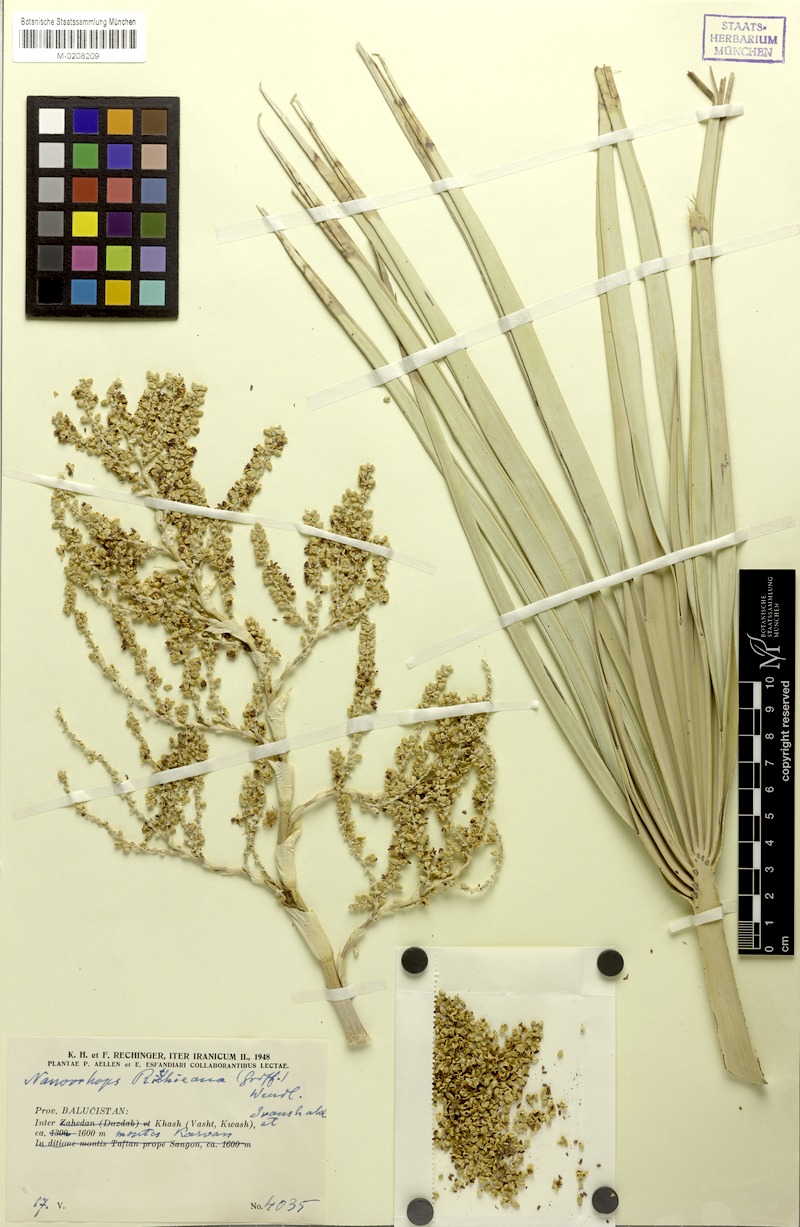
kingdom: Plantae
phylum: Tracheophyta
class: Liliopsida
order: Arecales
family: Arecaceae
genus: Nannorrhops
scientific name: Nannorrhops ritchieana
